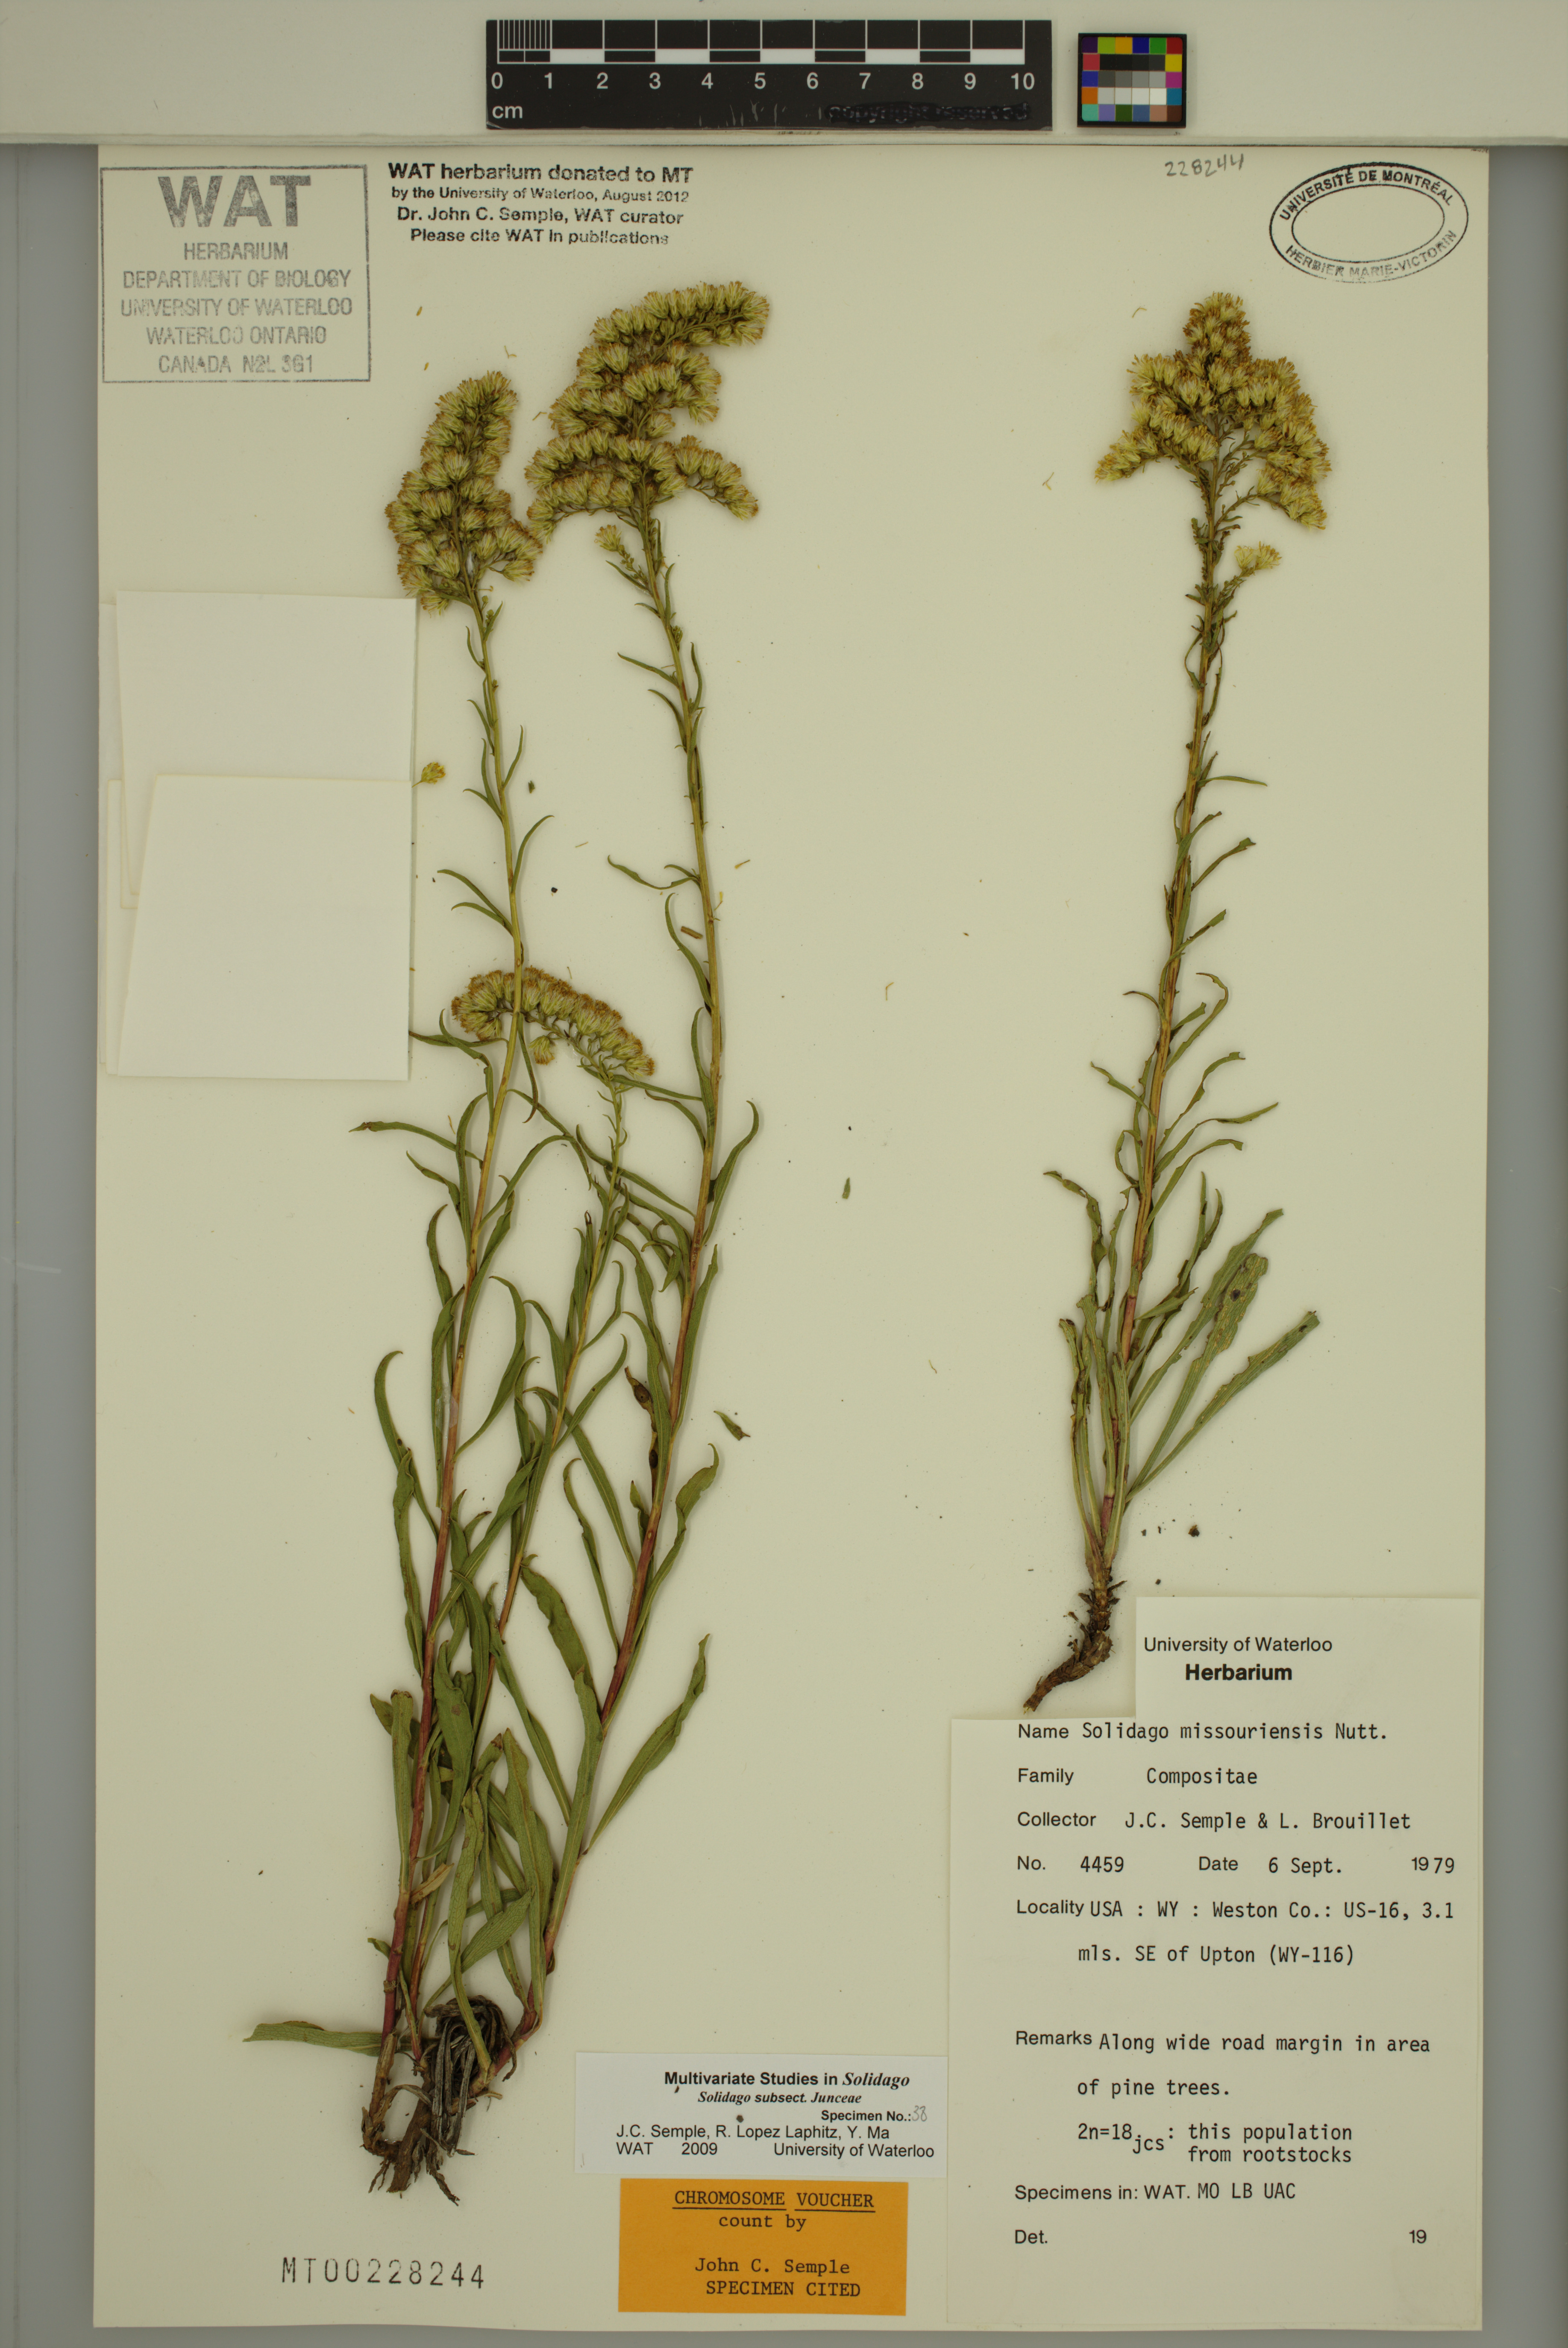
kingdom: Plantae
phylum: Tracheophyta
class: Magnoliopsida
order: Asterales
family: Asteraceae
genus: Solidago
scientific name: Solidago missouriensis
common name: Prairie goldenrod
